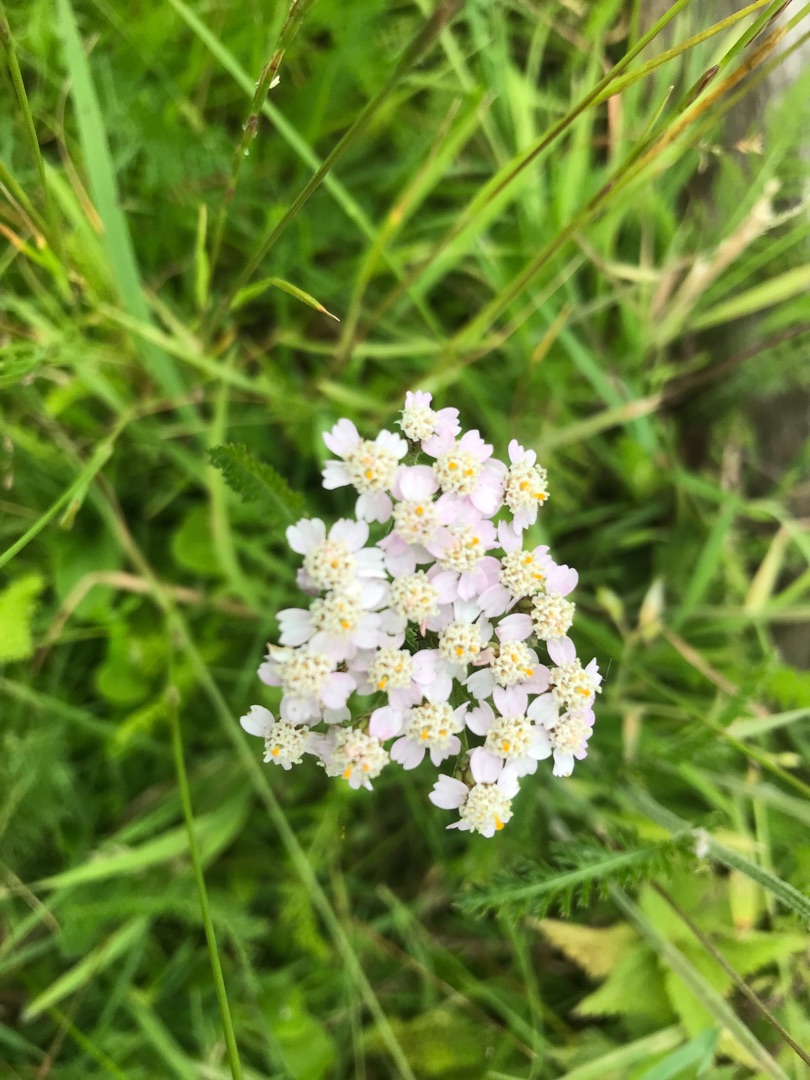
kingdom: Plantae
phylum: Tracheophyta
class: Magnoliopsida
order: Asterales
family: Asteraceae
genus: Achillea
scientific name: Achillea millefolium
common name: Almindelig røllike
